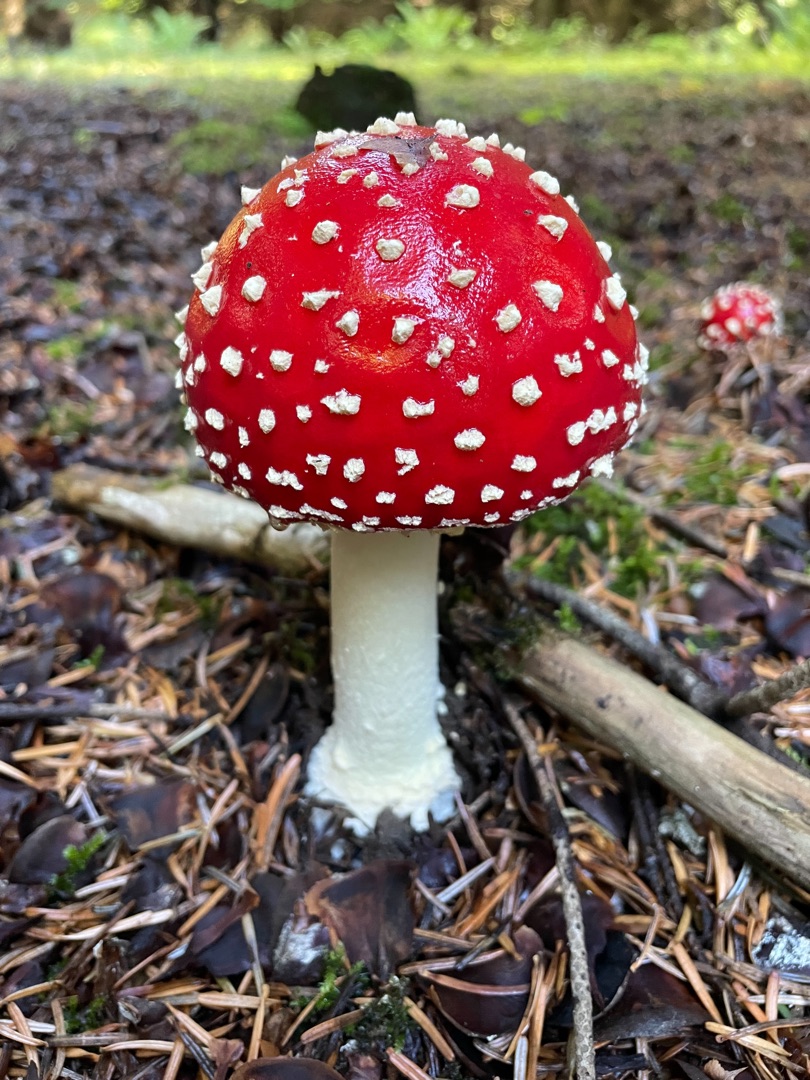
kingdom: Fungi
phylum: Basidiomycota
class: Agaricomycetes
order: Agaricales
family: Amanitaceae
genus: Amanita
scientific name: Amanita muscaria
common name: Rød fluesvamp
